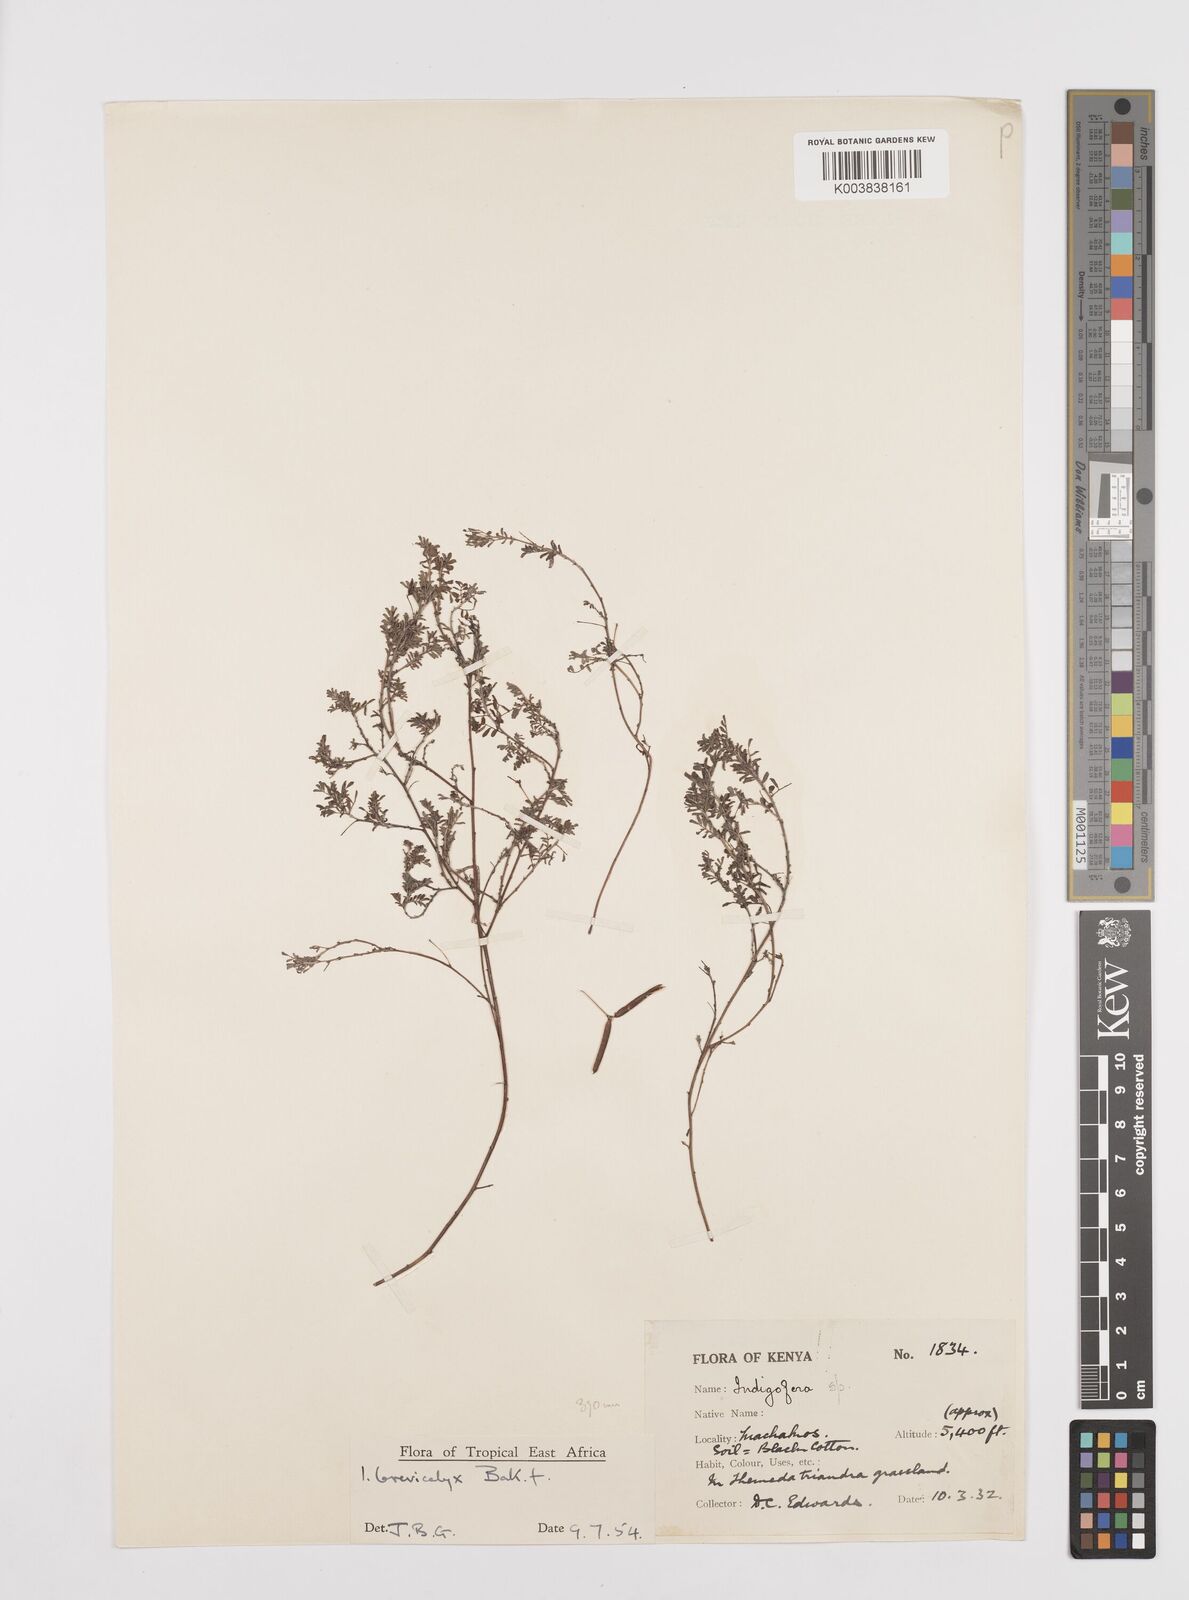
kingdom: Plantae
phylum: Tracheophyta
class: Magnoliopsida
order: Fabales
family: Fabaceae
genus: Indigofera
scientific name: Indigofera brevicalyx
